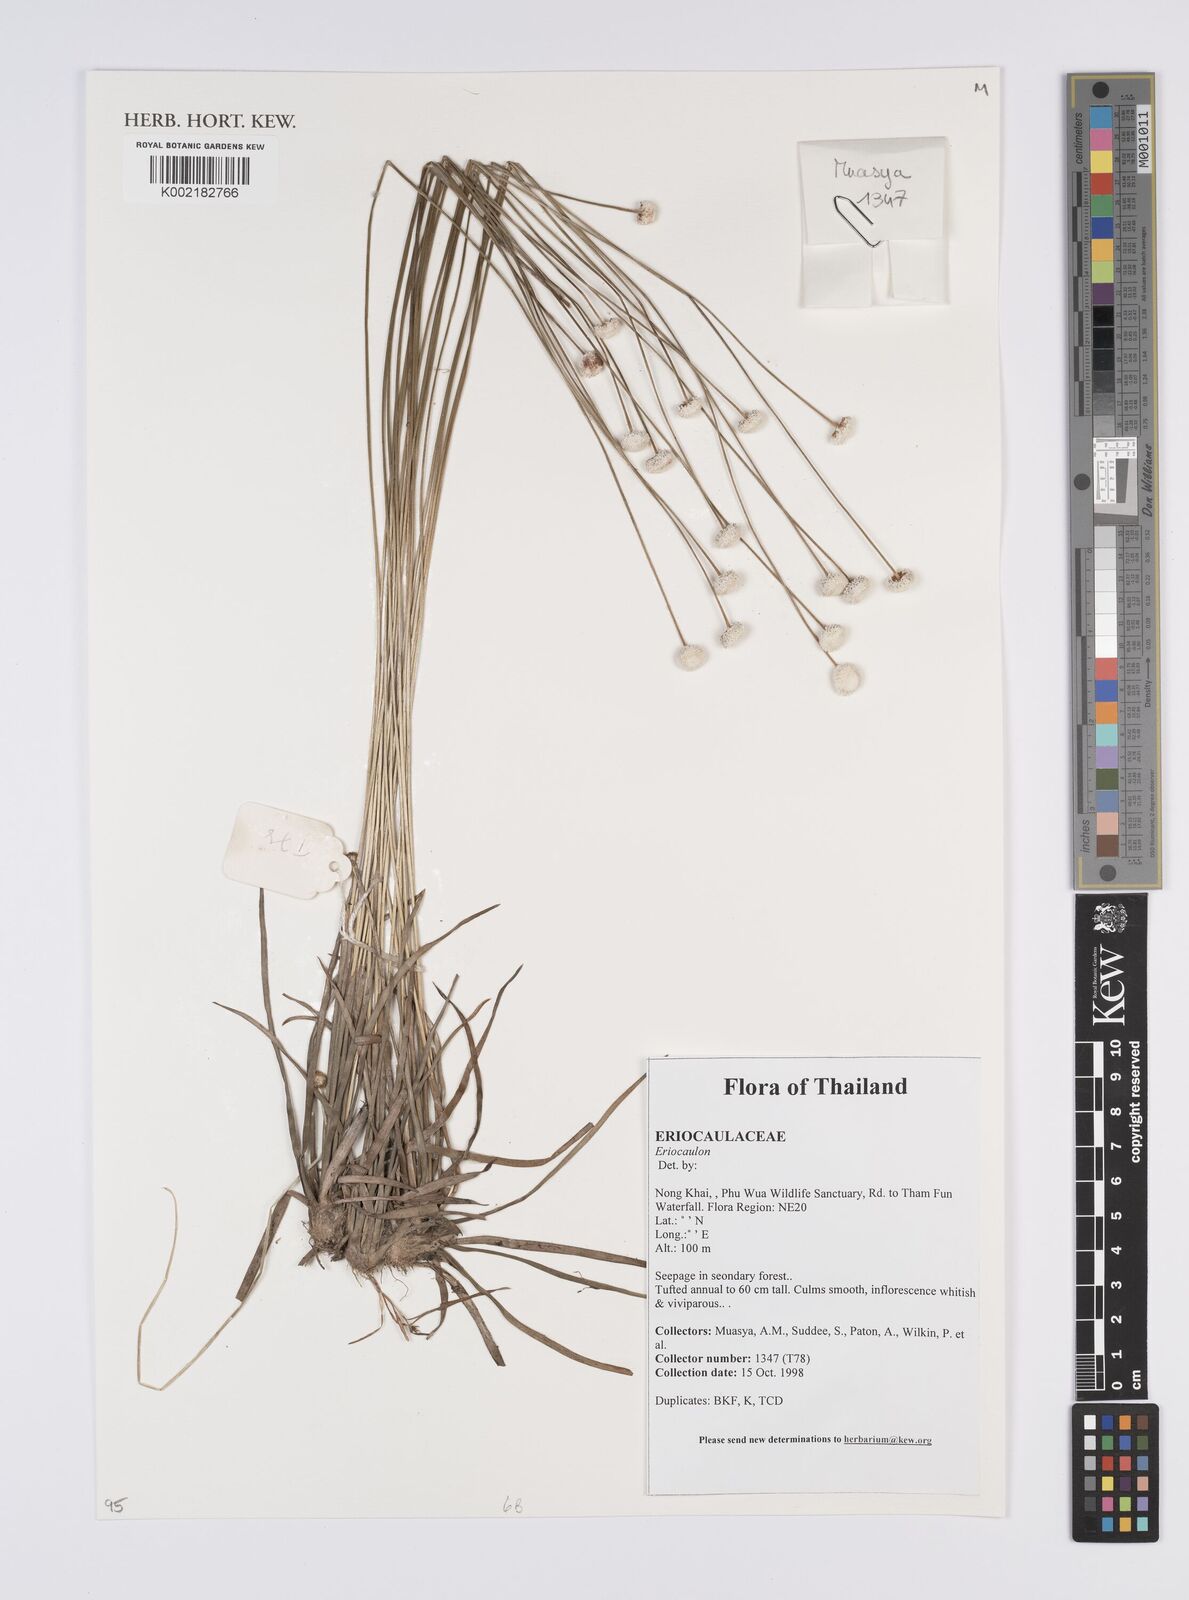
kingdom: Plantae
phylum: Tracheophyta
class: Liliopsida
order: Poales
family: Eriocaulaceae
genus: Eriocaulon
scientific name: Eriocaulon
